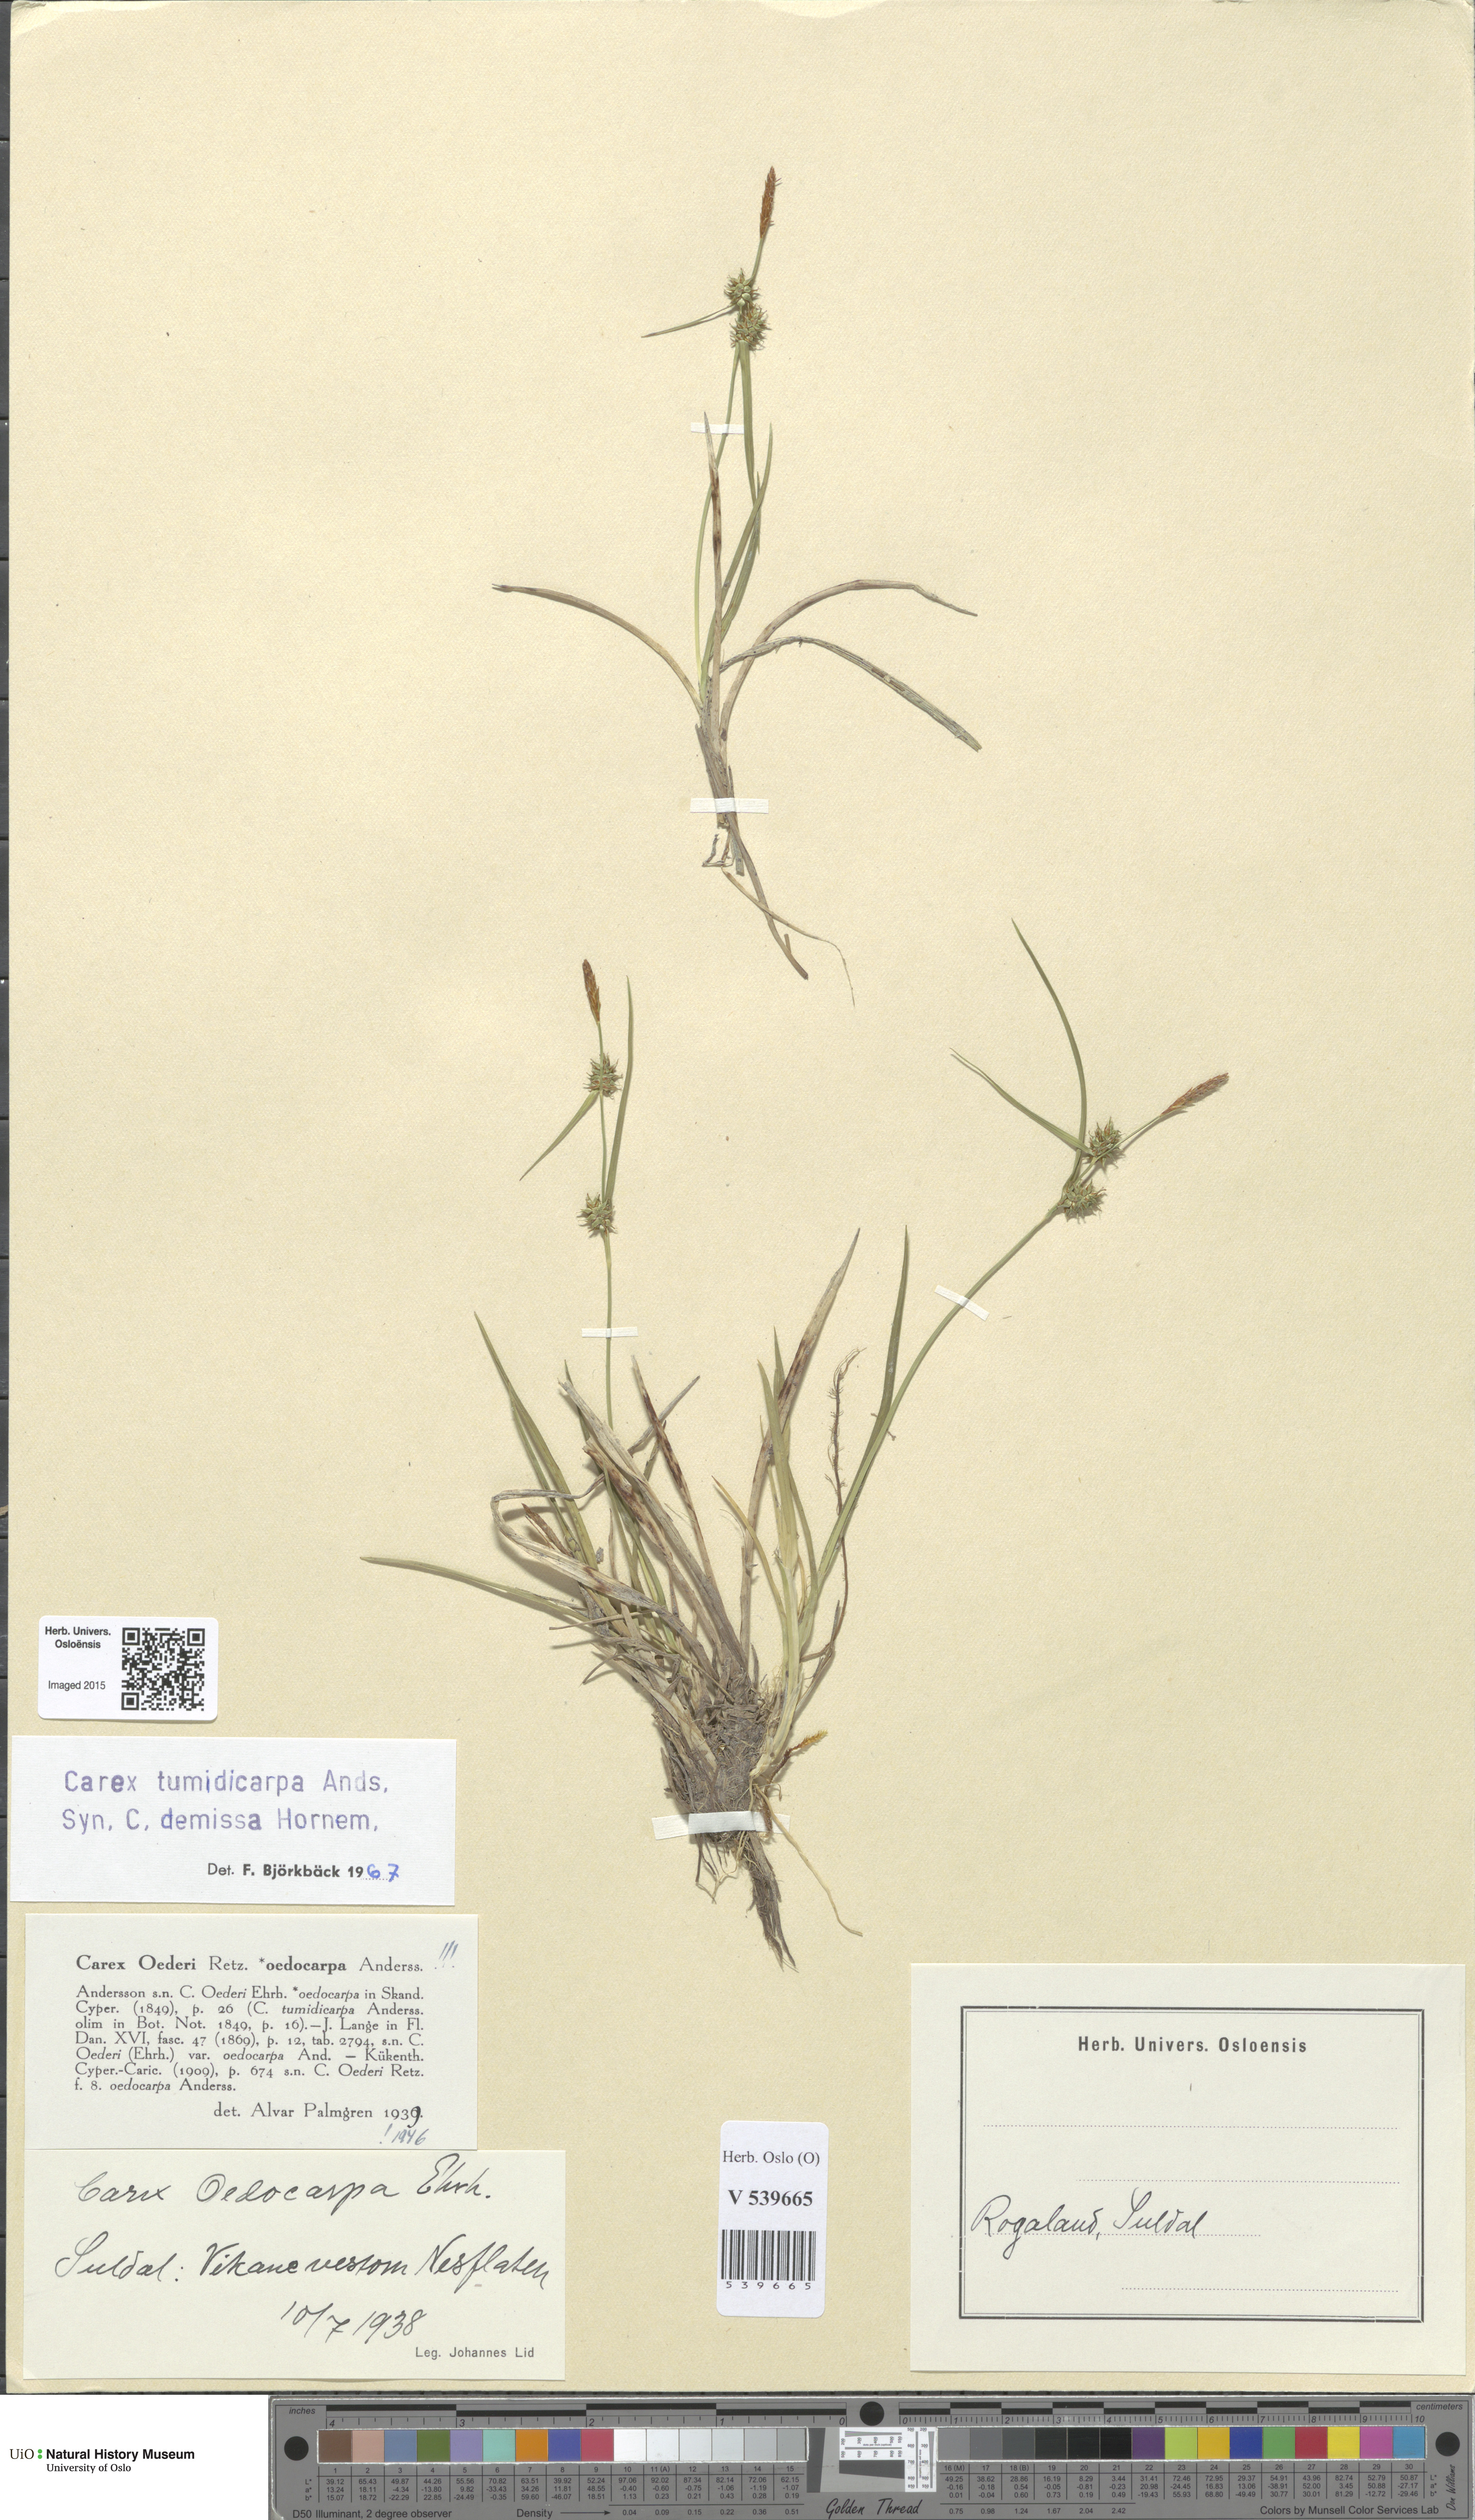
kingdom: Plantae
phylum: Tracheophyta
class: Liliopsida
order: Poales
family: Cyperaceae
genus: Carex
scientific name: Carex demissa
